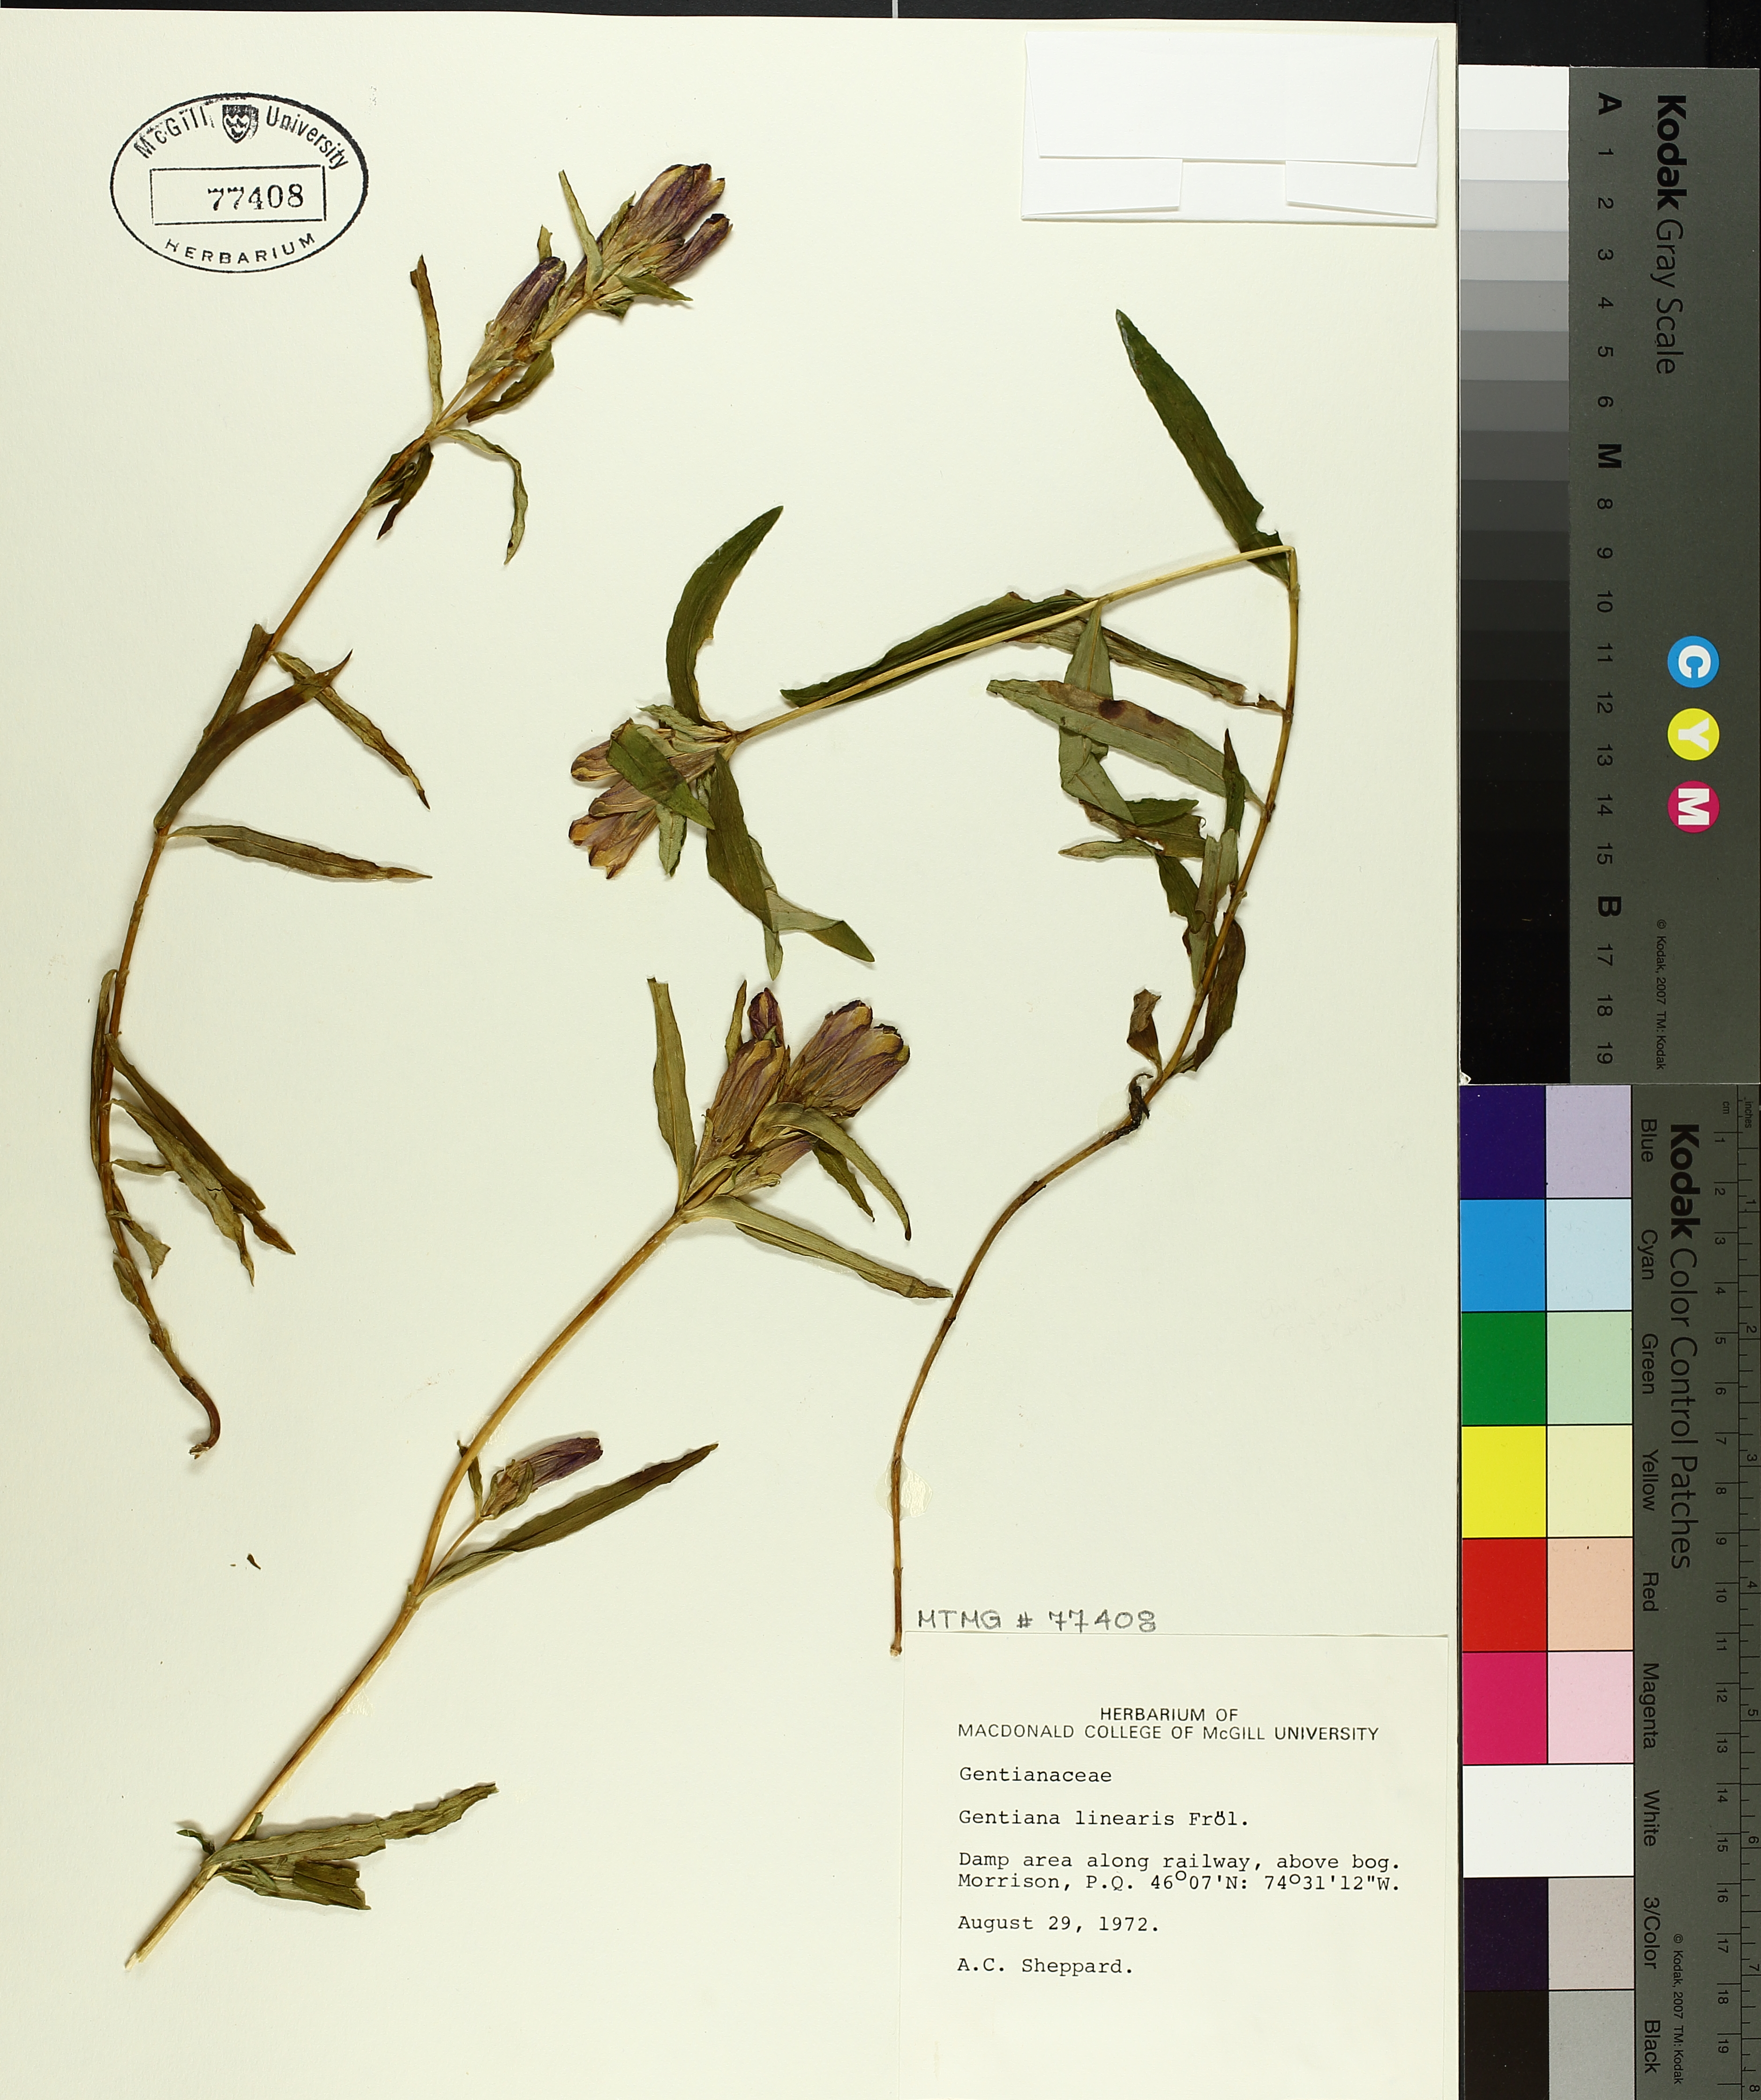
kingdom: Plantae
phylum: Tracheophyta
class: Magnoliopsida
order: Gentianales
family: Gentianaceae
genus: Gentiana
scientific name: Gentiana linearis
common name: Bastard gentian
